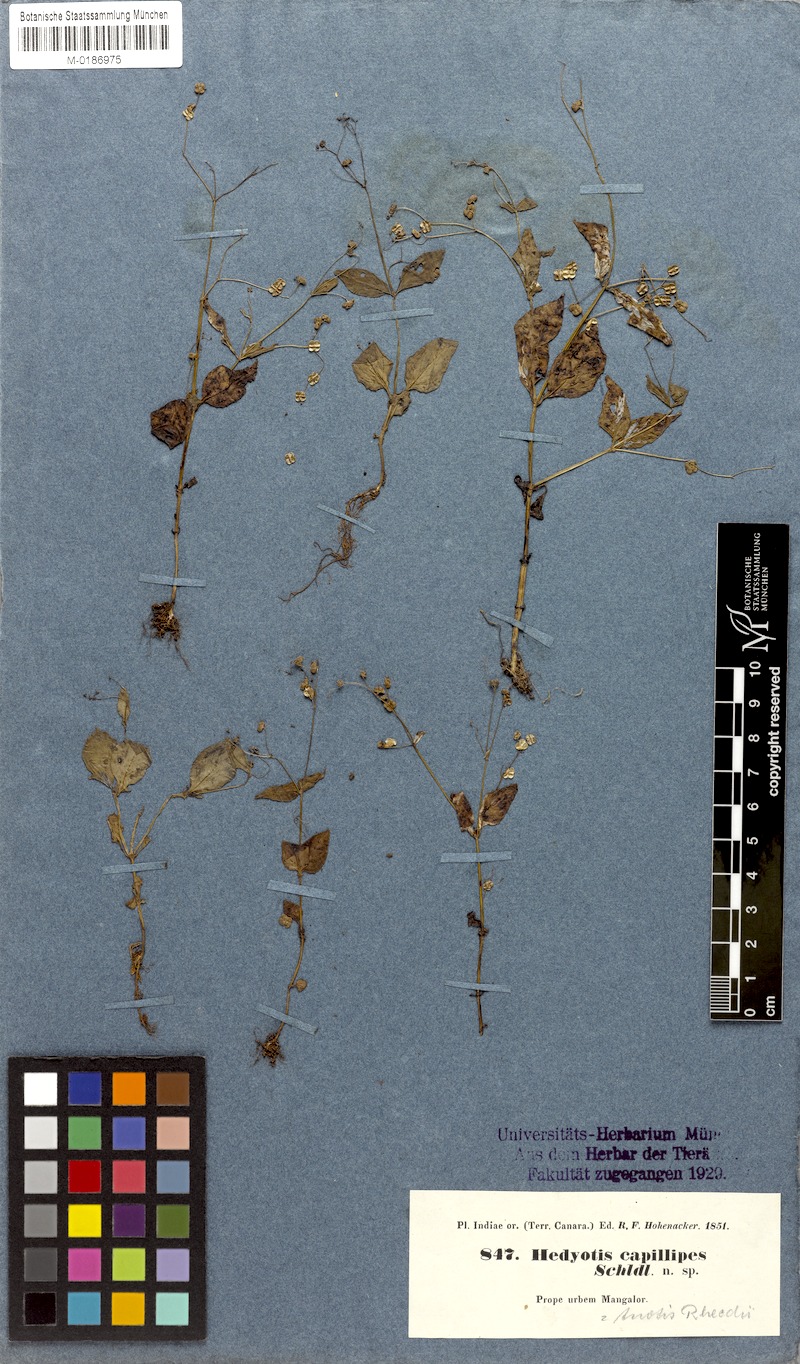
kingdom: Plantae
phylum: Tracheophyta
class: Magnoliopsida
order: Gentianales
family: Rubiaceae
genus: Neanotis
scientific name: Neanotis rheedei
